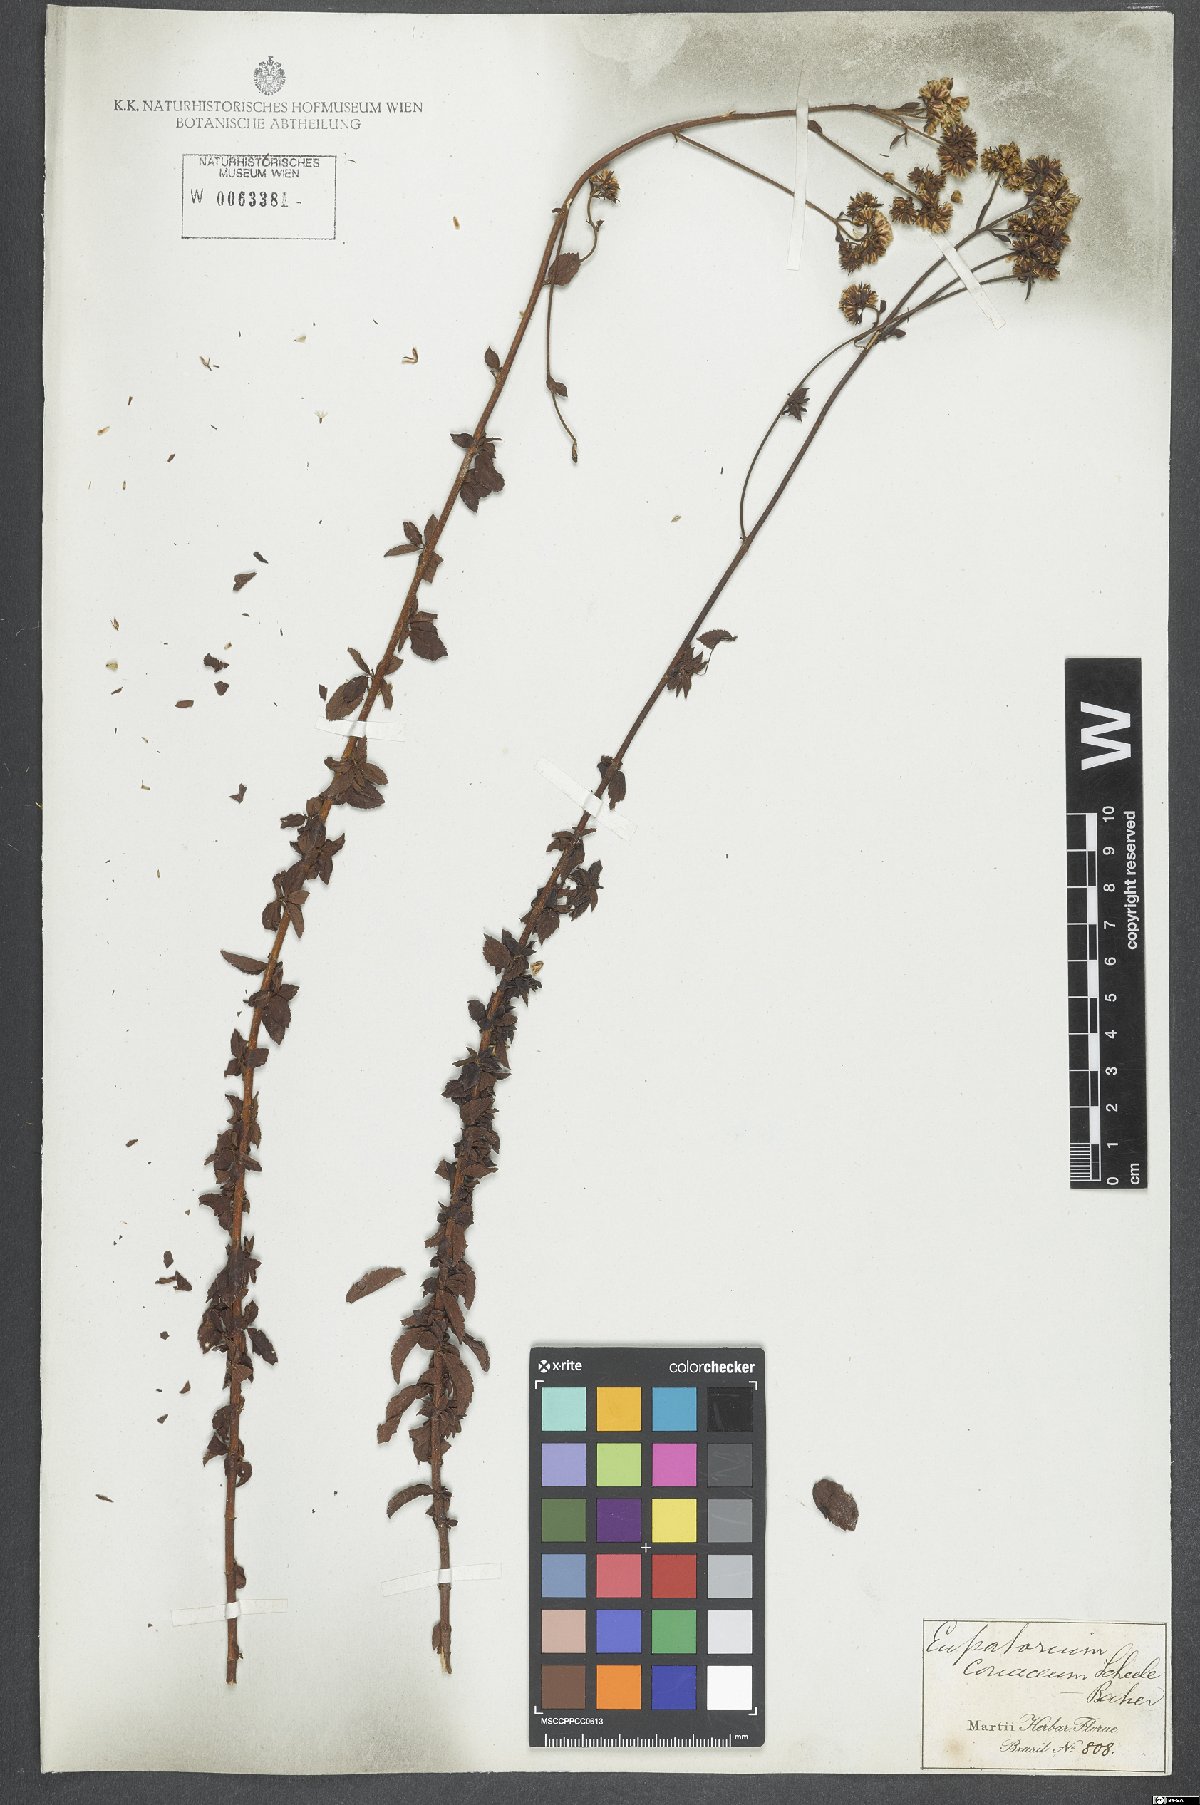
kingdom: Plantae
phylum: Tracheophyta
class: Magnoliopsida
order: Asterales
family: Asteraceae
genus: Grazielia
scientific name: Grazielia coriacea
